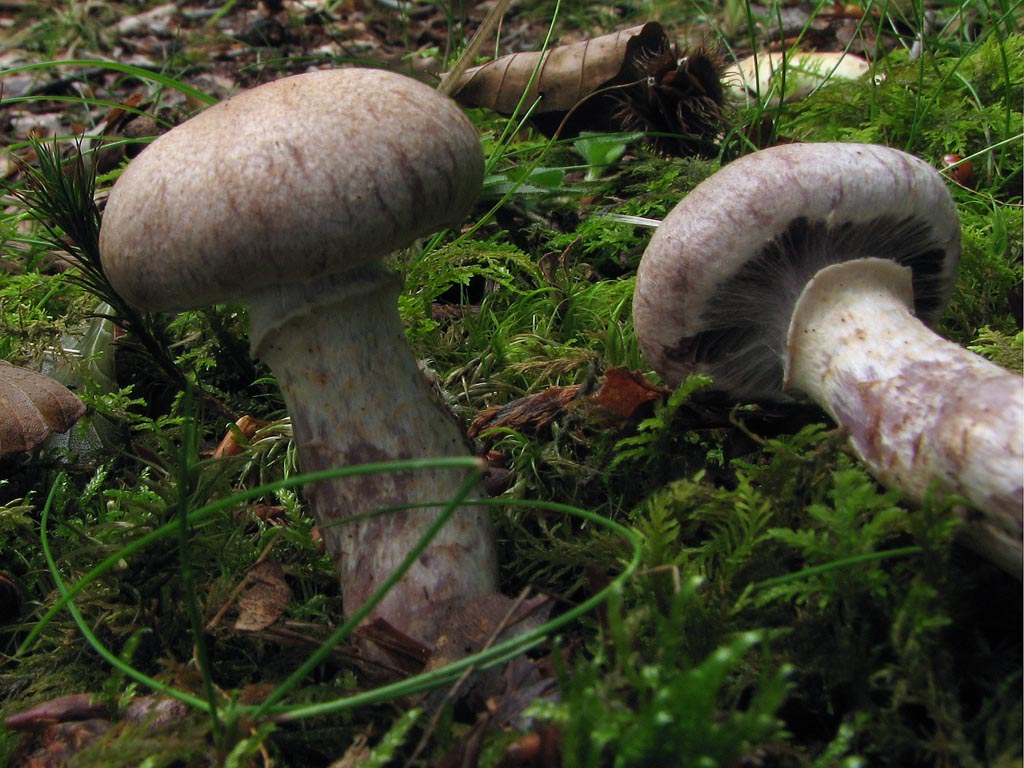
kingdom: Fungi
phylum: Basidiomycota
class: Agaricomycetes
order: Agaricales
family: Cortinariaceae
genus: Cortinarius
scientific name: Cortinarius torvus
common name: champignonagtig slørhat
